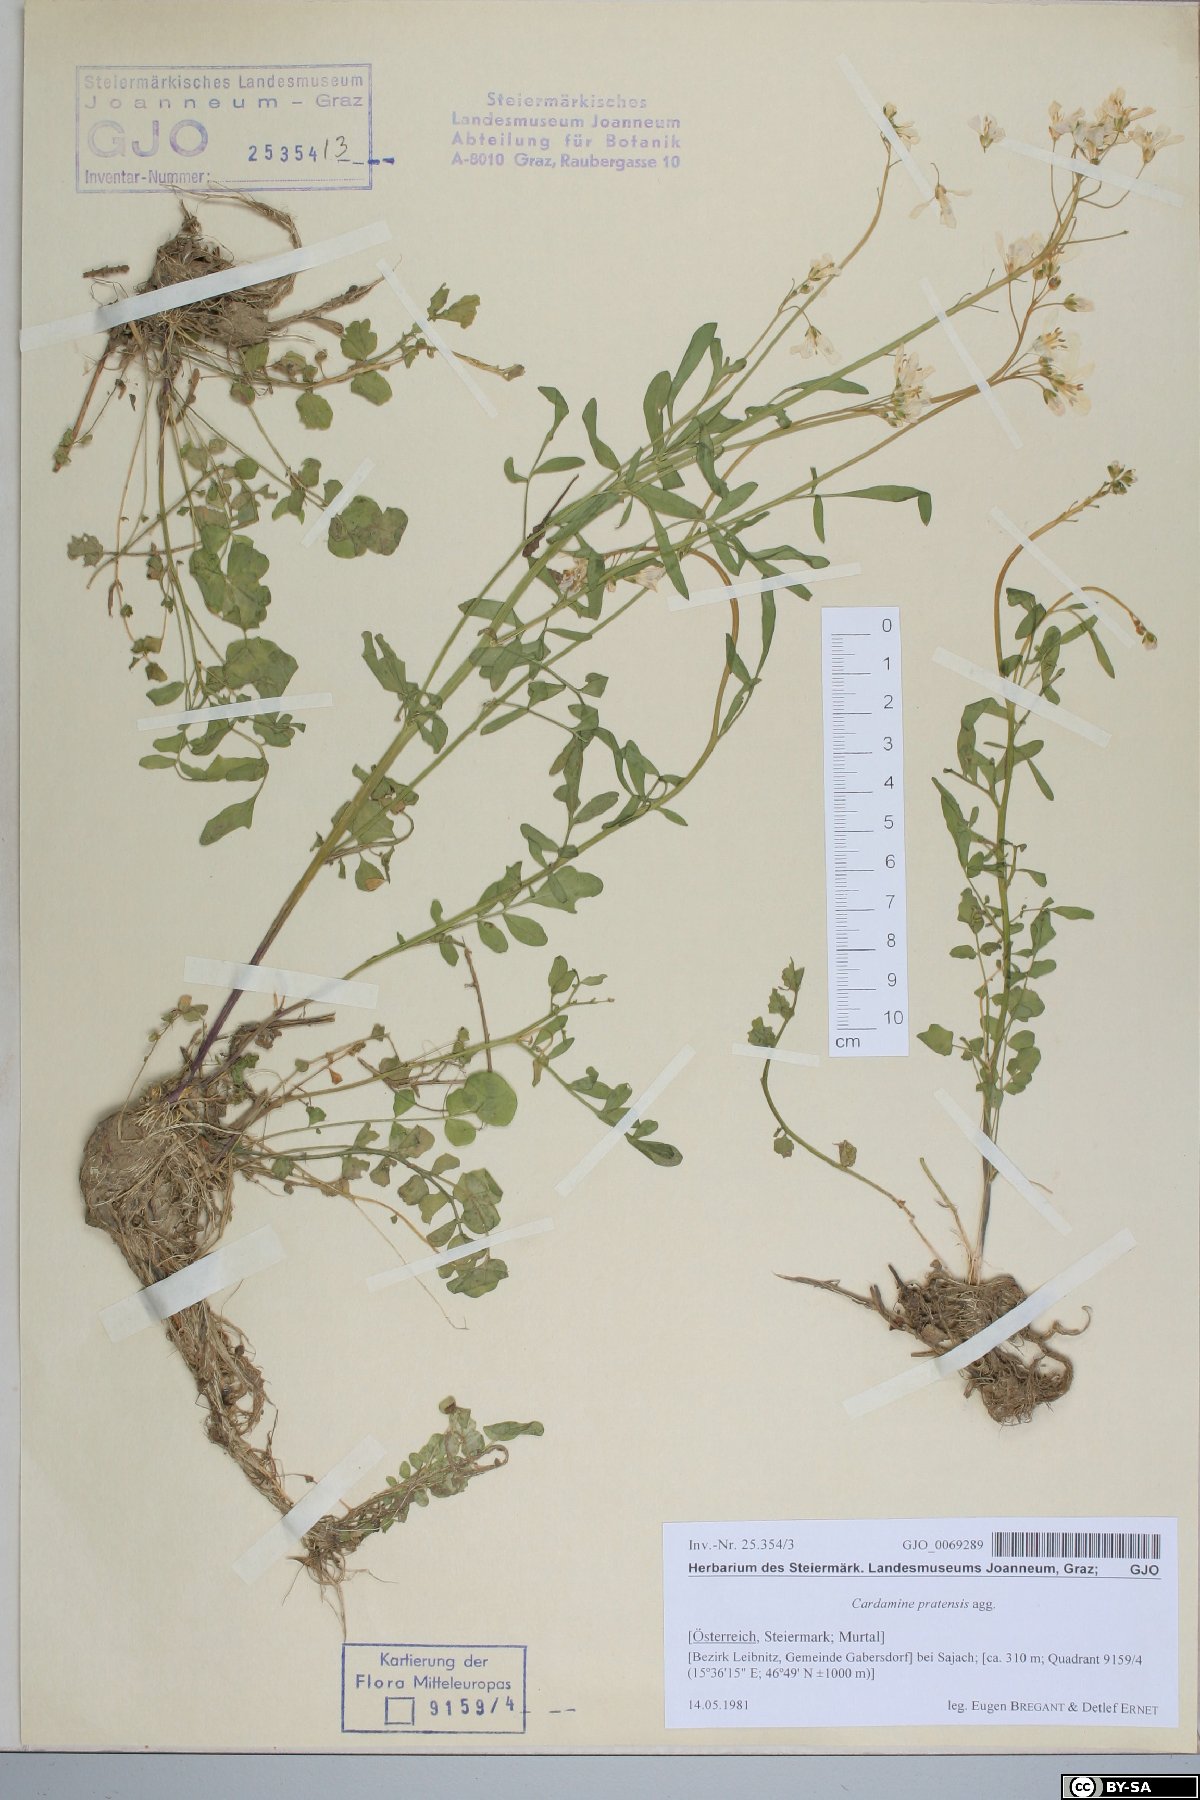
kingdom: Plantae
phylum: Tracheophyta
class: Magnoliopsida
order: Brassicales
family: Brassicaceae
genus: Cardamine
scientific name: Cardamine pratensis
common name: Cuckoo flower
